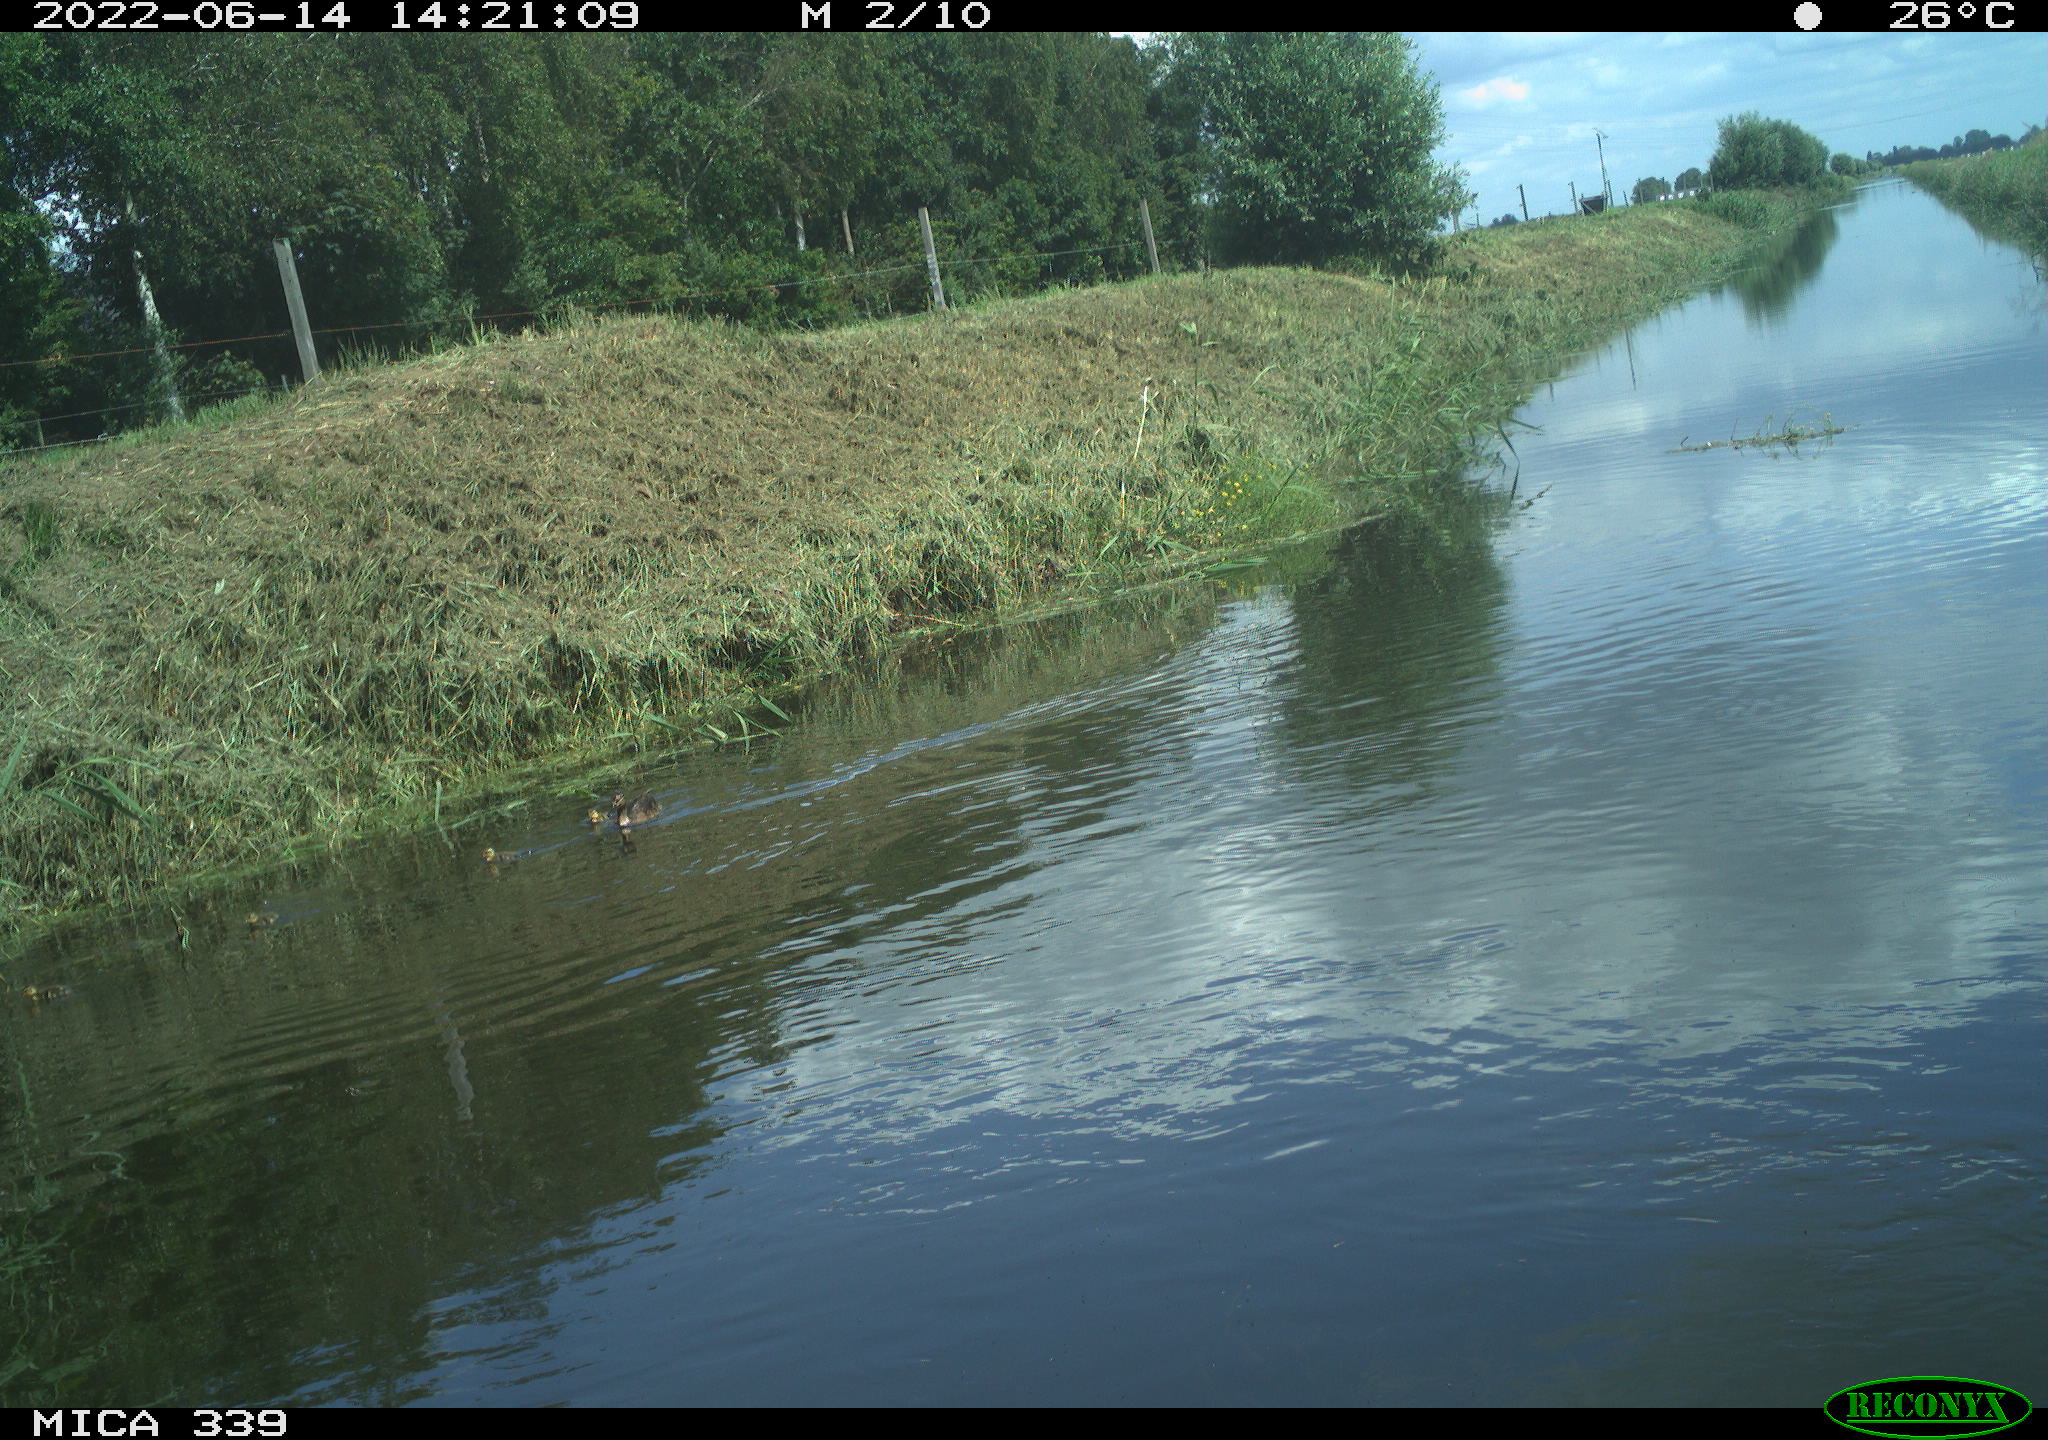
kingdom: Animalia
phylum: Chordata
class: Aves
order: Anseriformes
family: Anatidae
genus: Anas
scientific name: Anas platyrhynchos
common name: Mallard
